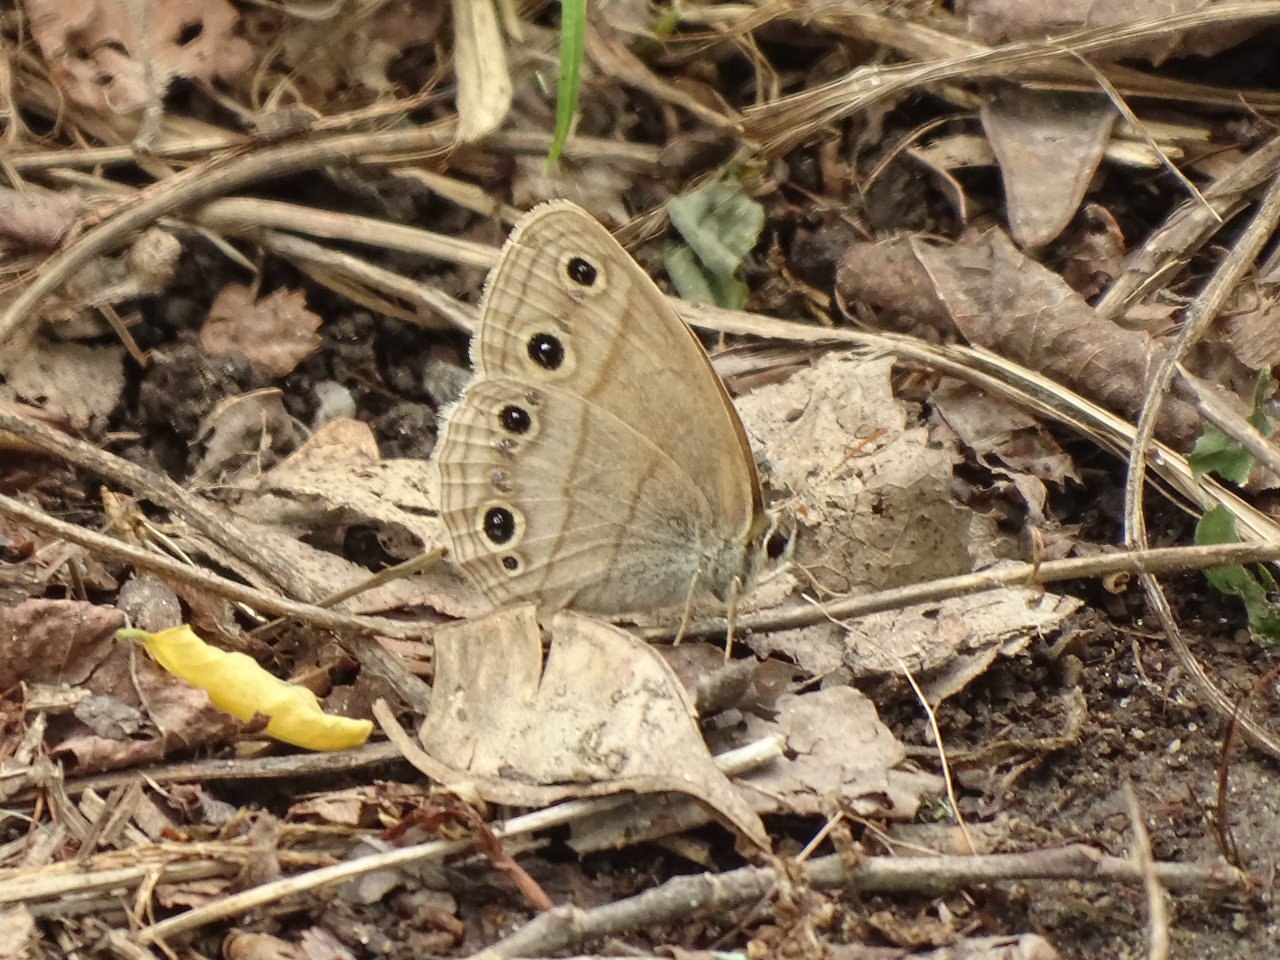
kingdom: Animalia
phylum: Arthropoda
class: Insecta
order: Lepidoptera
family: Nymphalidae
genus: Euptychia
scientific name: Euptychia cymela
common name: Little Wood Satyr
